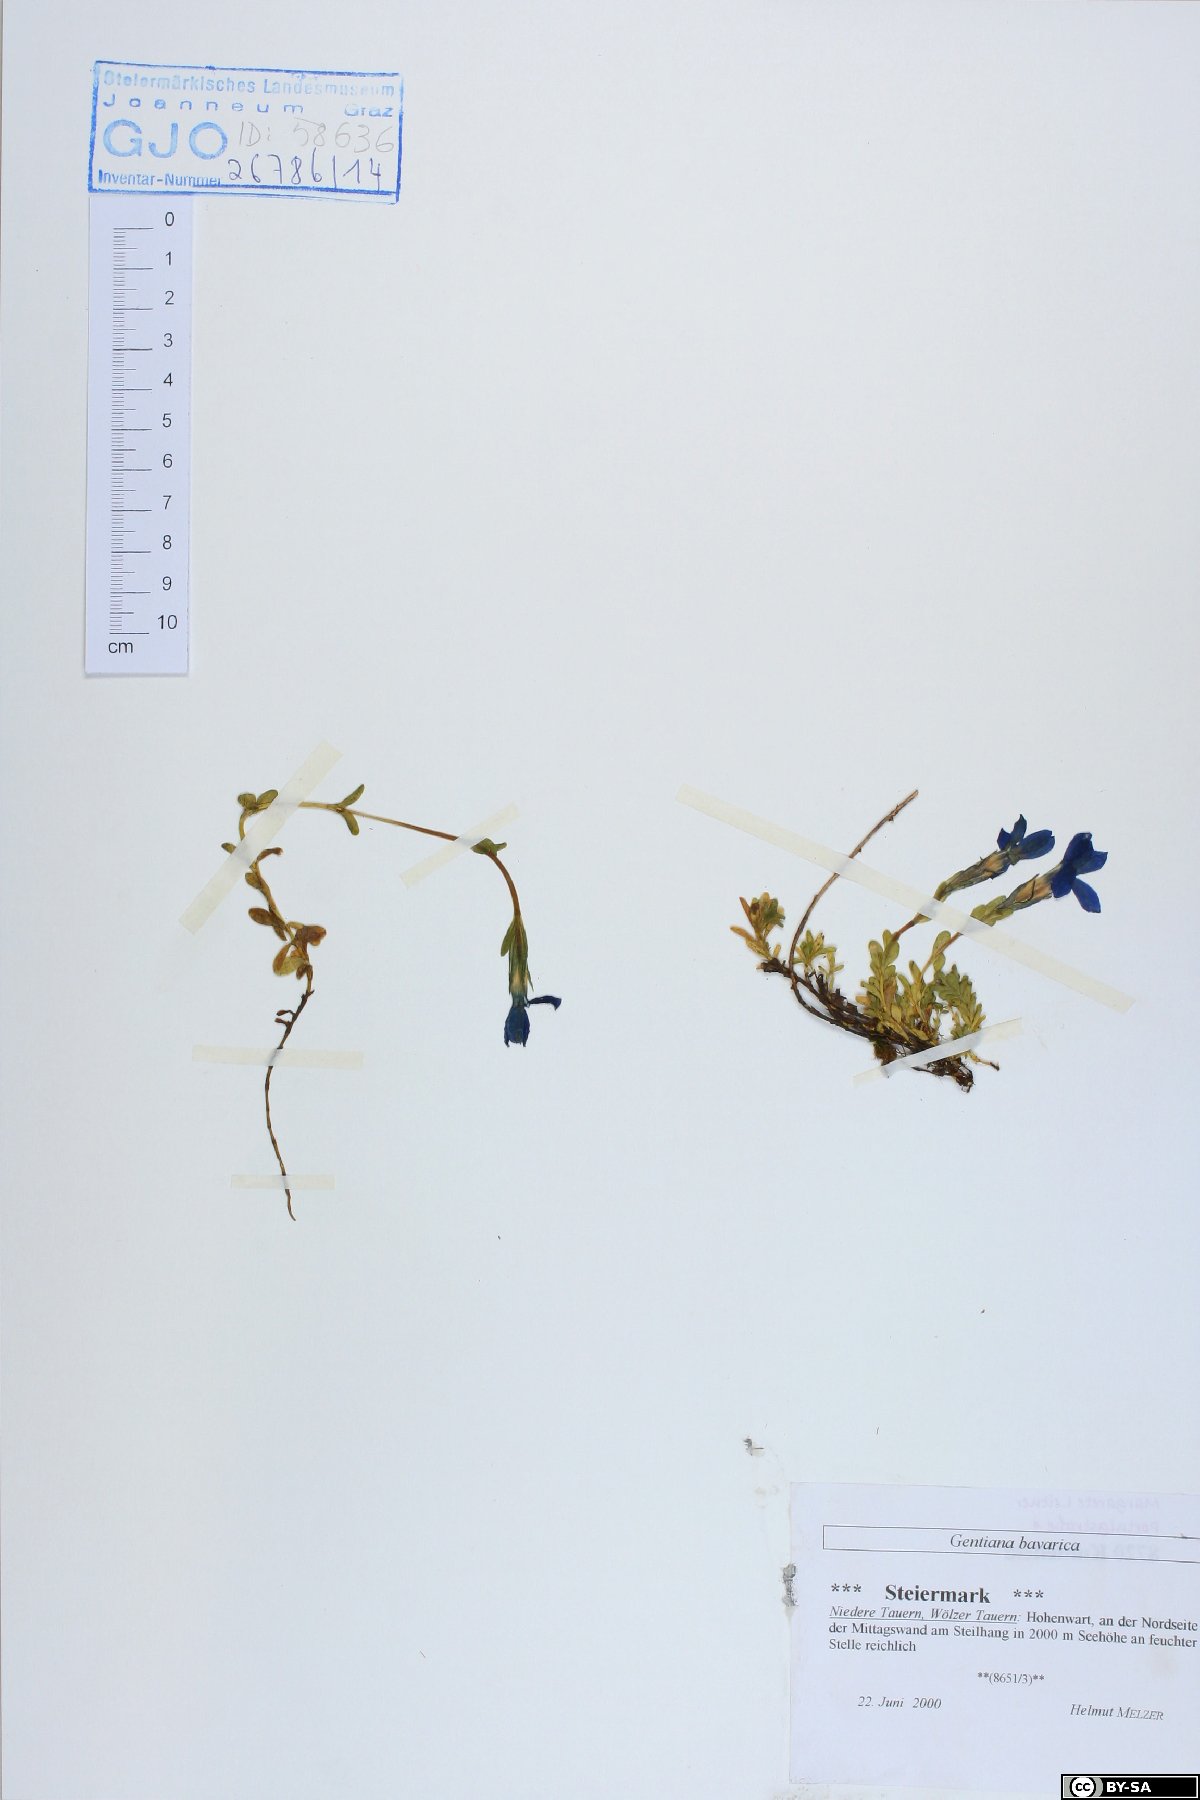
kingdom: Plantae
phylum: Tracheophyta
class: Magnoliopsida
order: Gentianales
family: Gentianaceae
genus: Gentiana
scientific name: Gentiana bavarica
